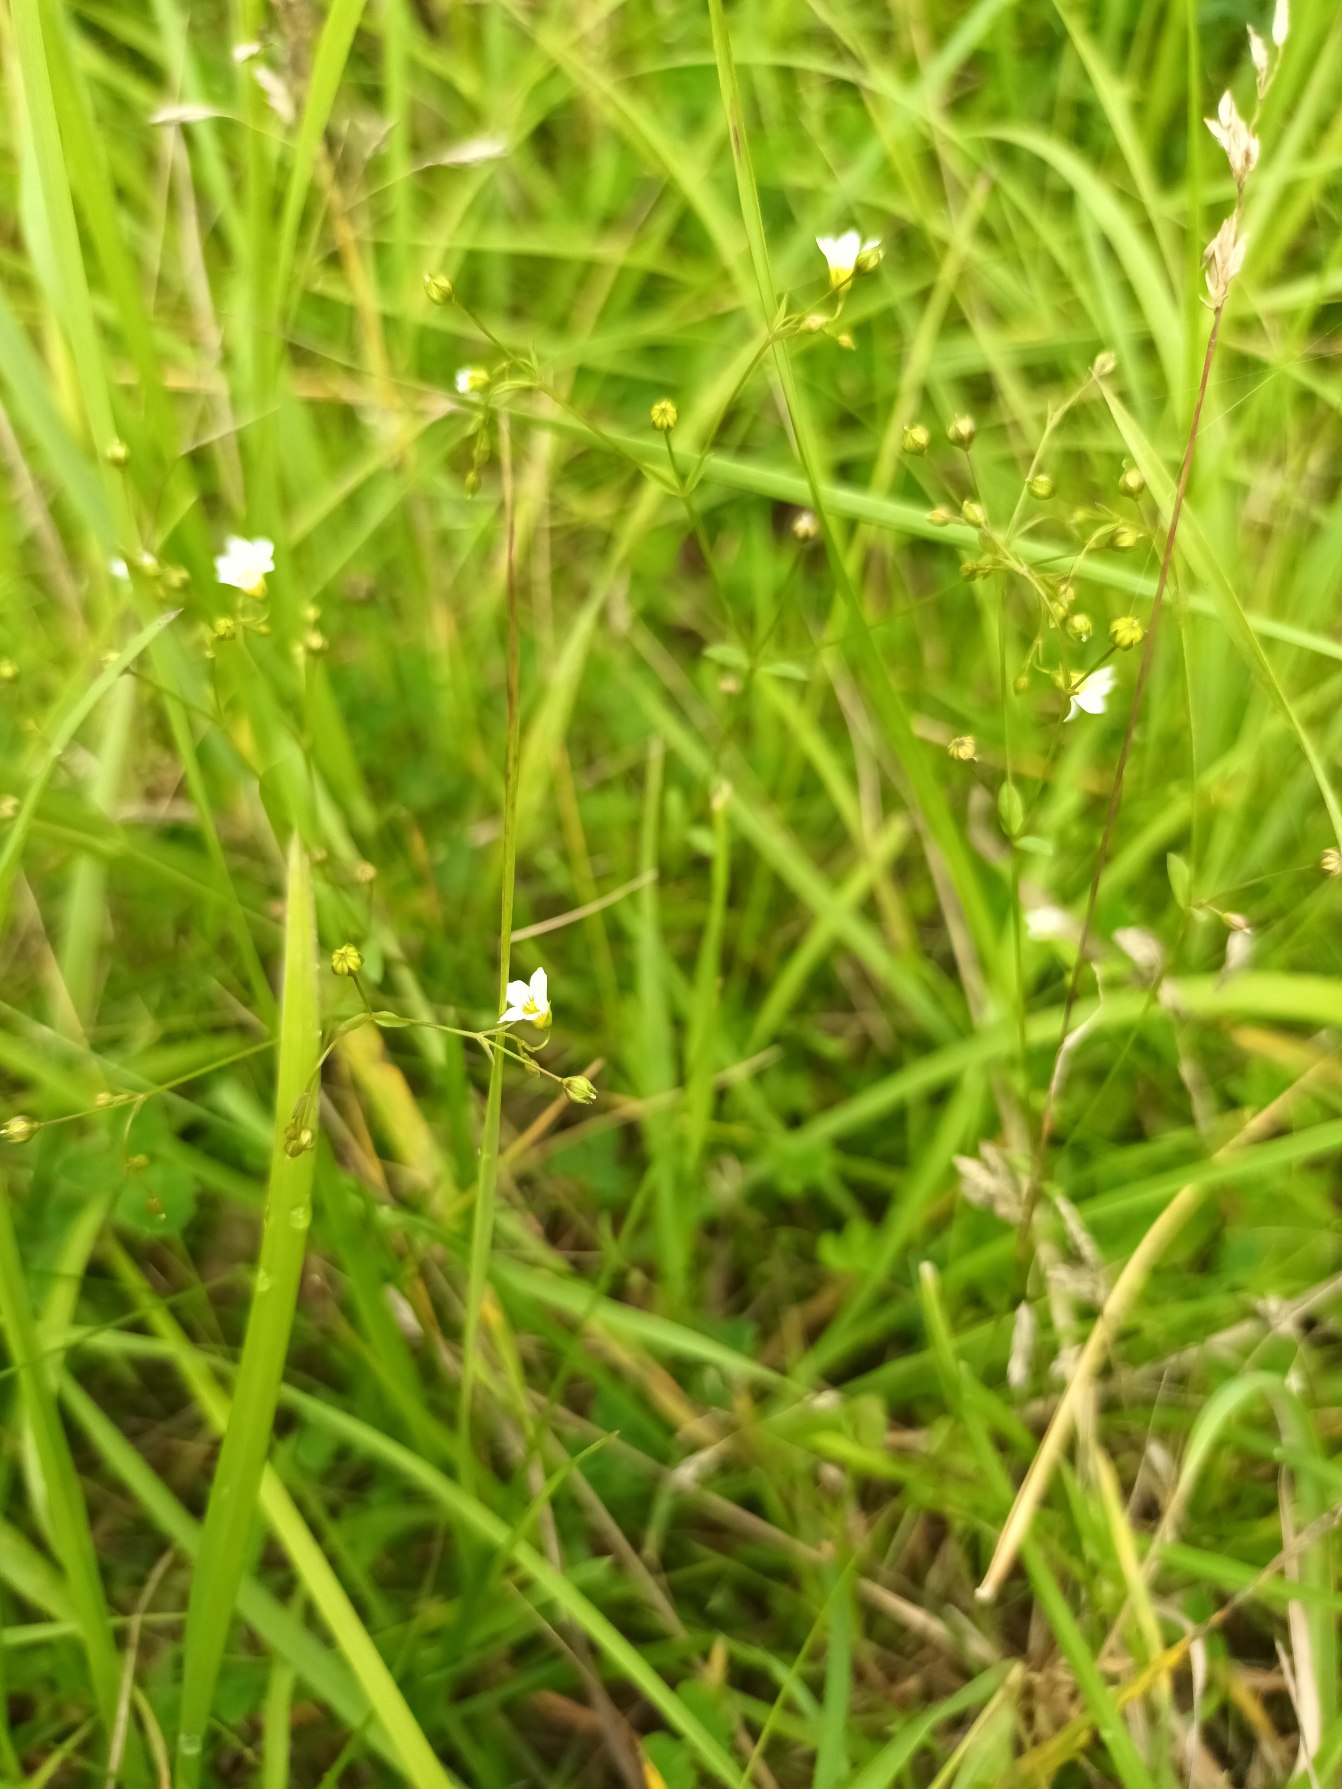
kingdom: Plantae
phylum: Tracheophyta
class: Magnoliopsida
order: Malpighiales
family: Linaceae
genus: Linum
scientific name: Linum catharticum
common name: Vild hør
